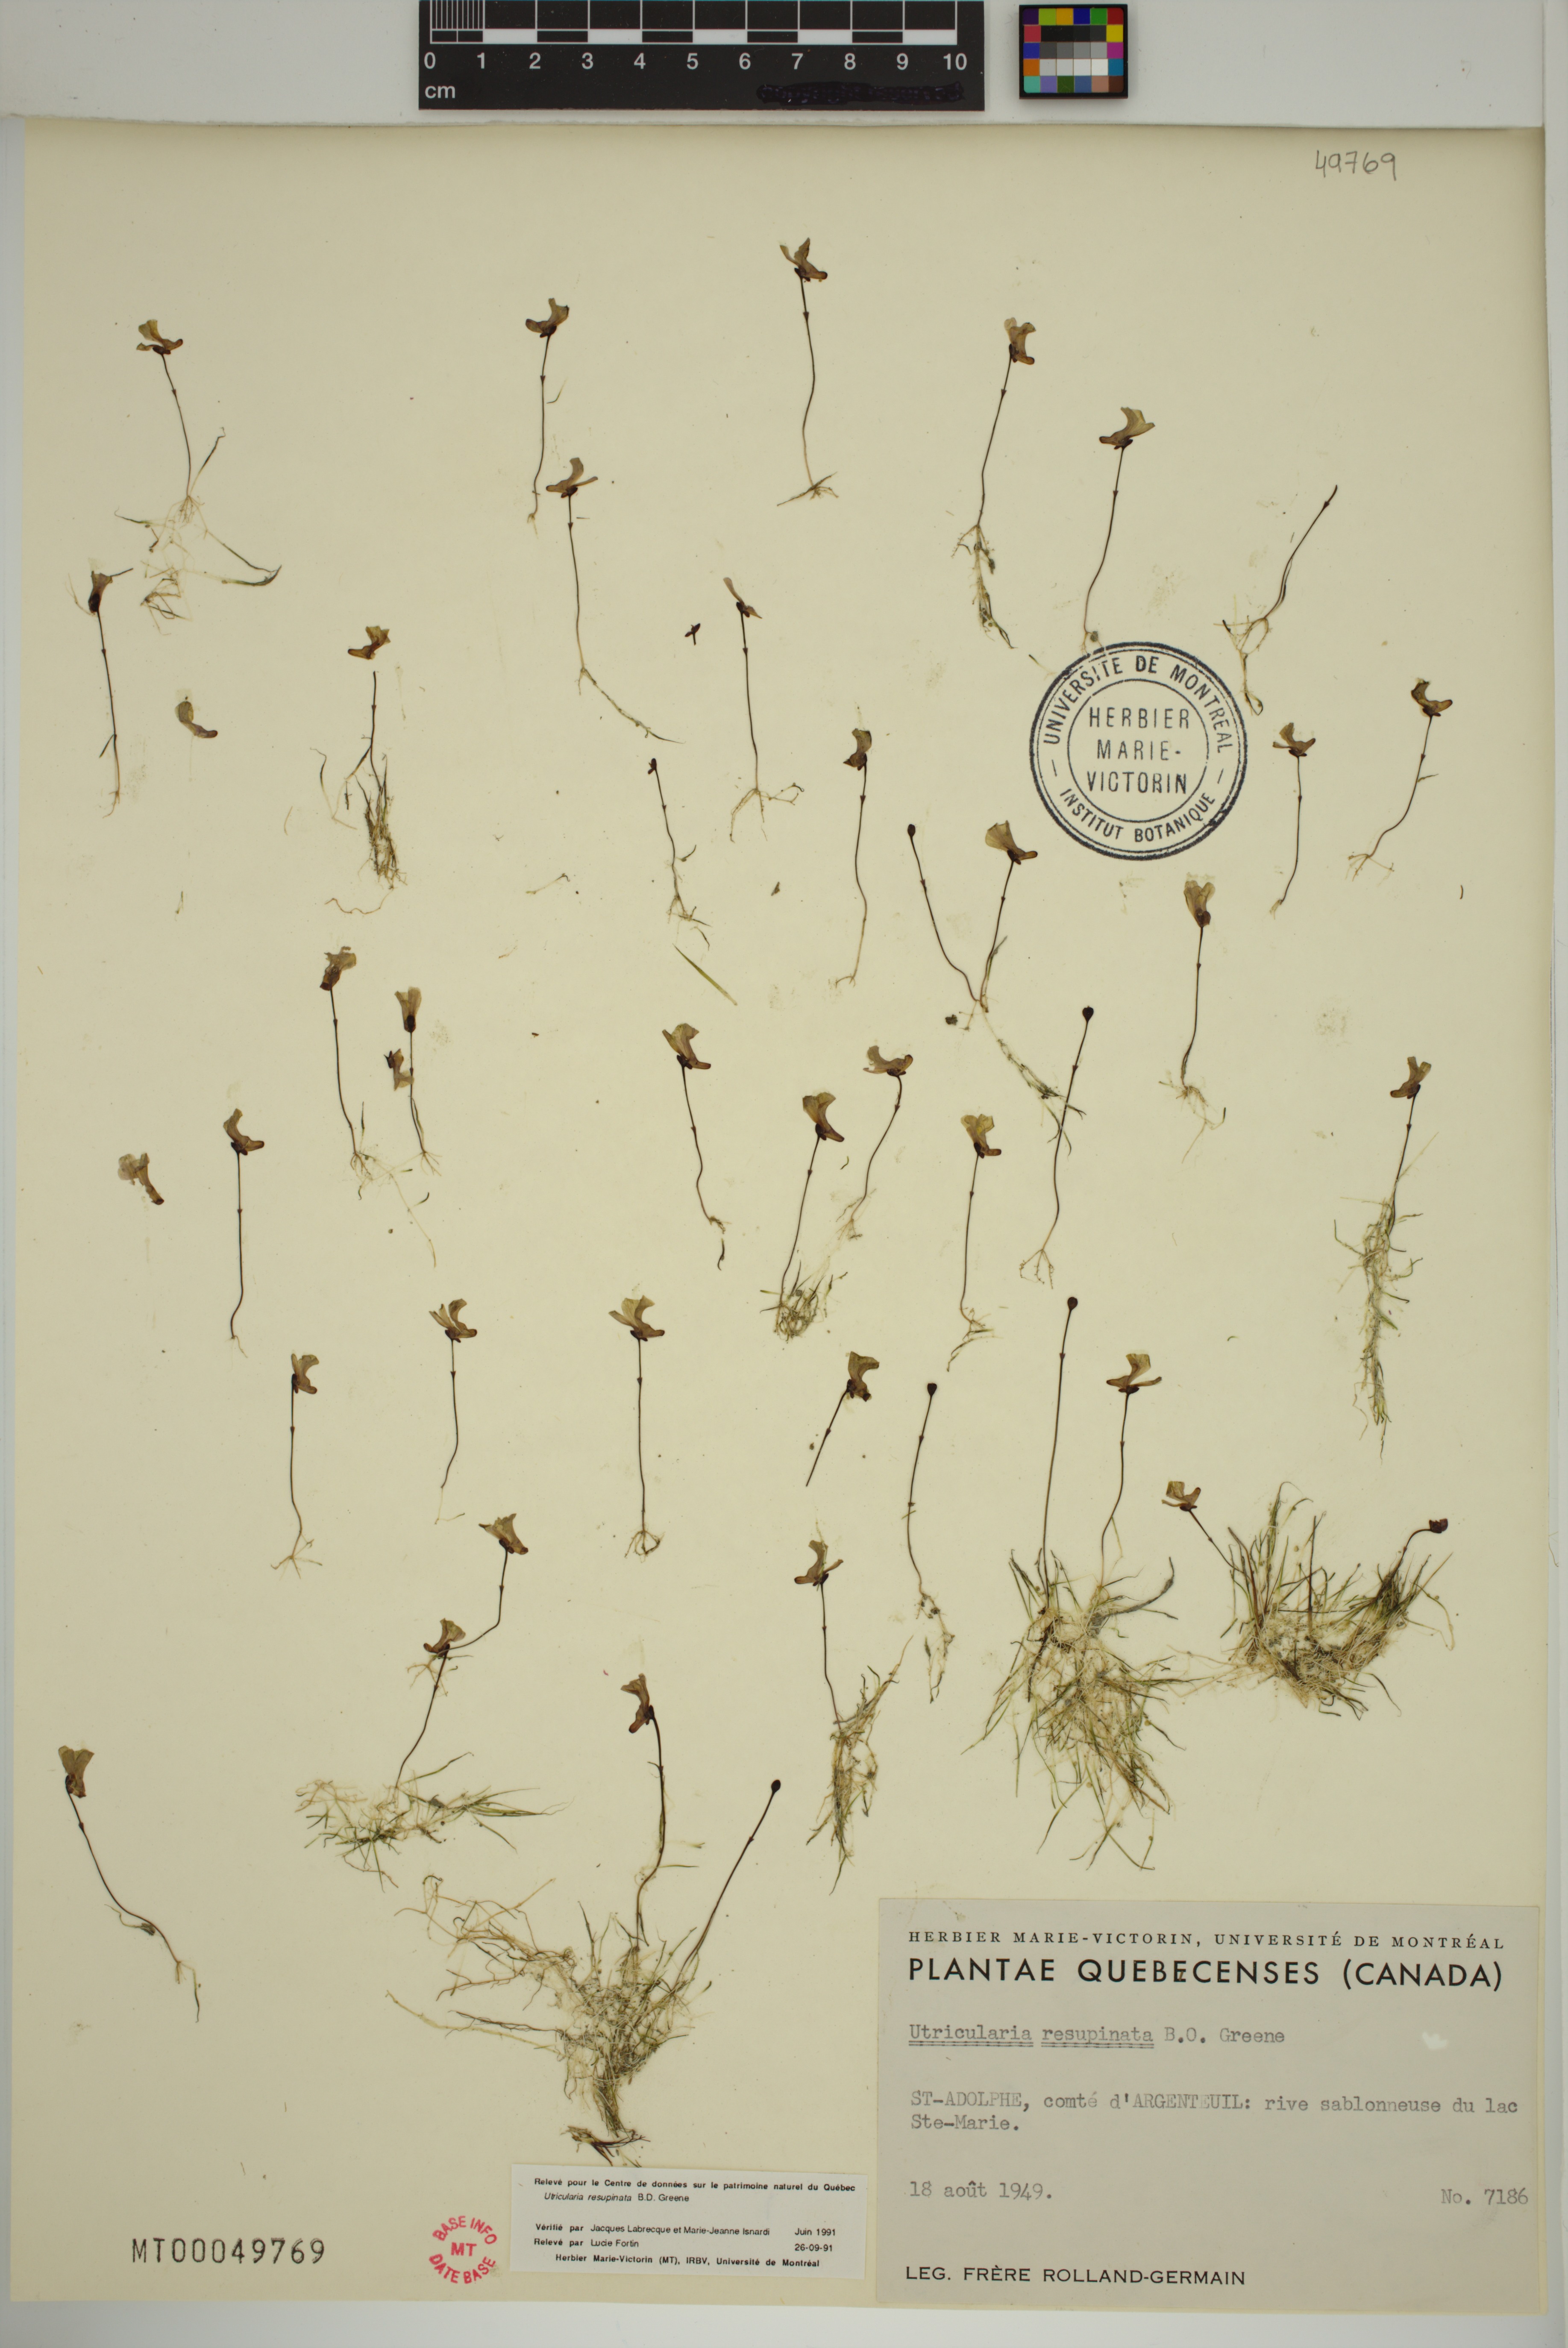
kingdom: Plantae
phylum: Tracheophyta
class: Magnoliopsida
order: Lamiales
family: Lentibulariaceae
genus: Utricularia
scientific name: Utricularia resupinata
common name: Northeastern bladderwort
